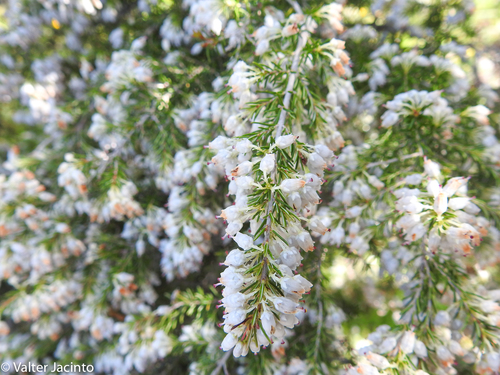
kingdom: Plantae
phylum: Tracheophyta
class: Magnoliopsida
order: Ericales
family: Ericaceae
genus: Erica
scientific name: Erica lusitanica
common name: Spanish heath
